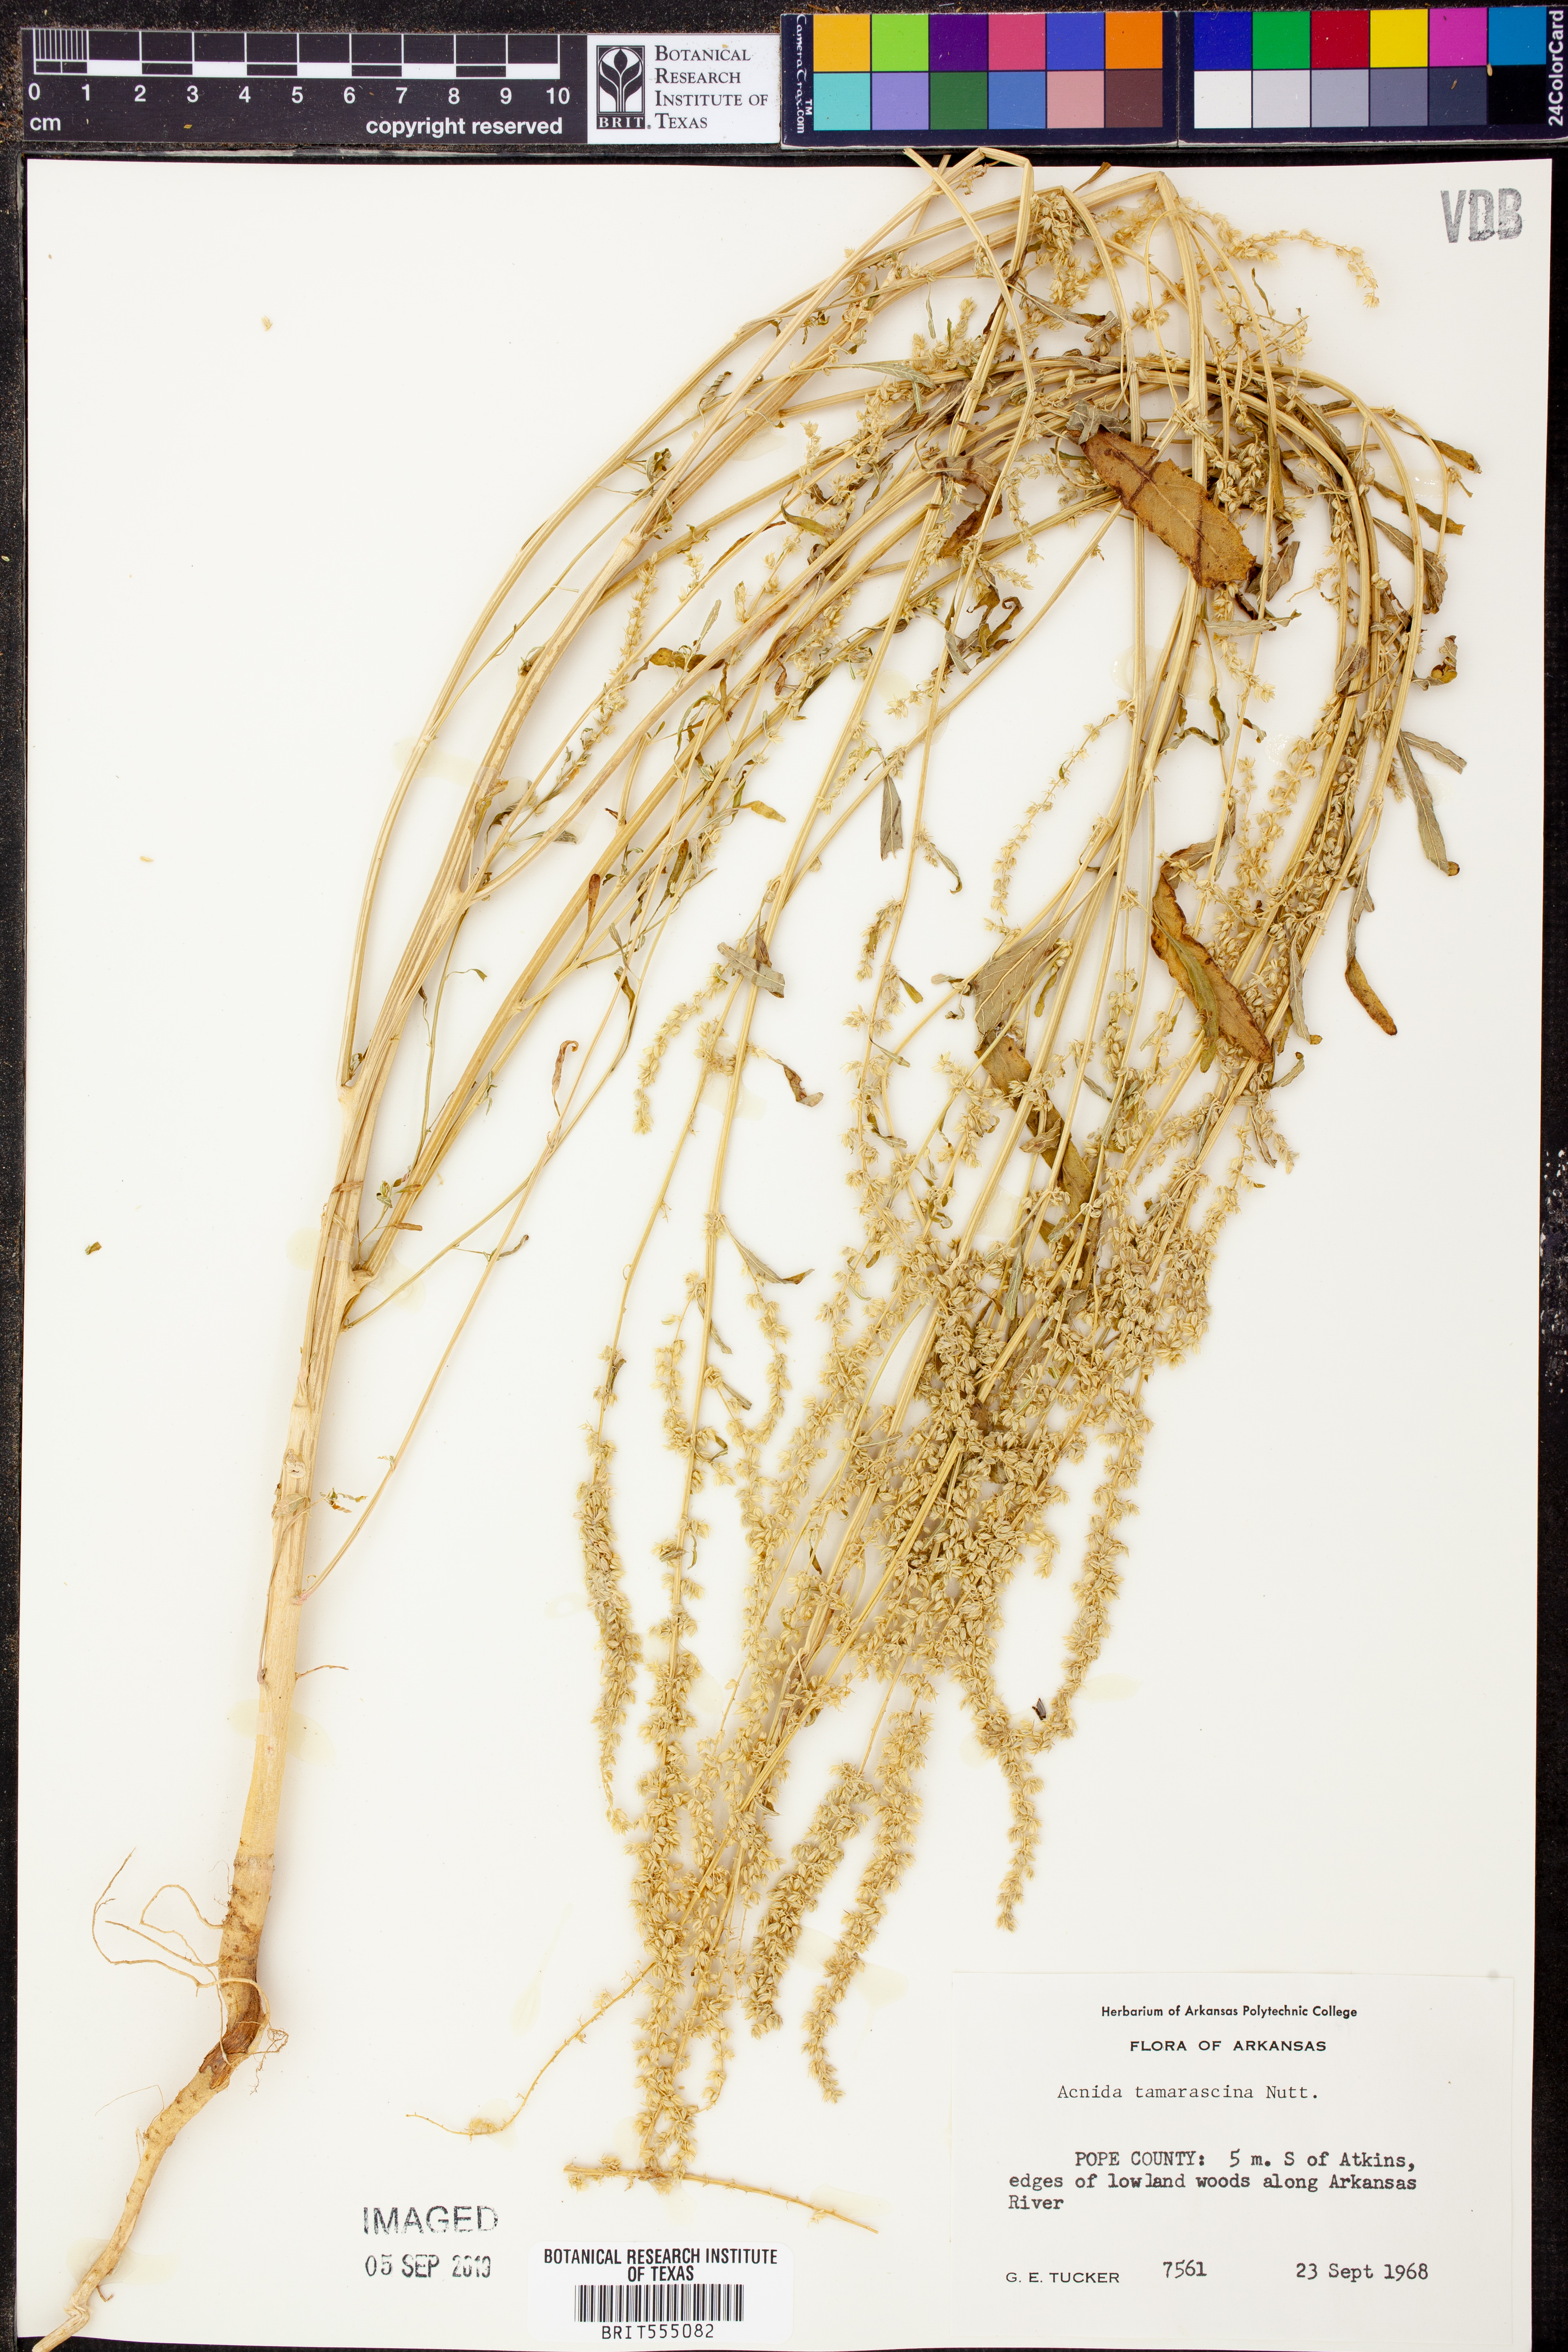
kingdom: Plantae
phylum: Tracheophyta
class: Magnoliopsida
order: Caryophyllales
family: Amaranthaceae
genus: Amaranthus
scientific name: Amaranthus tamariscinus
